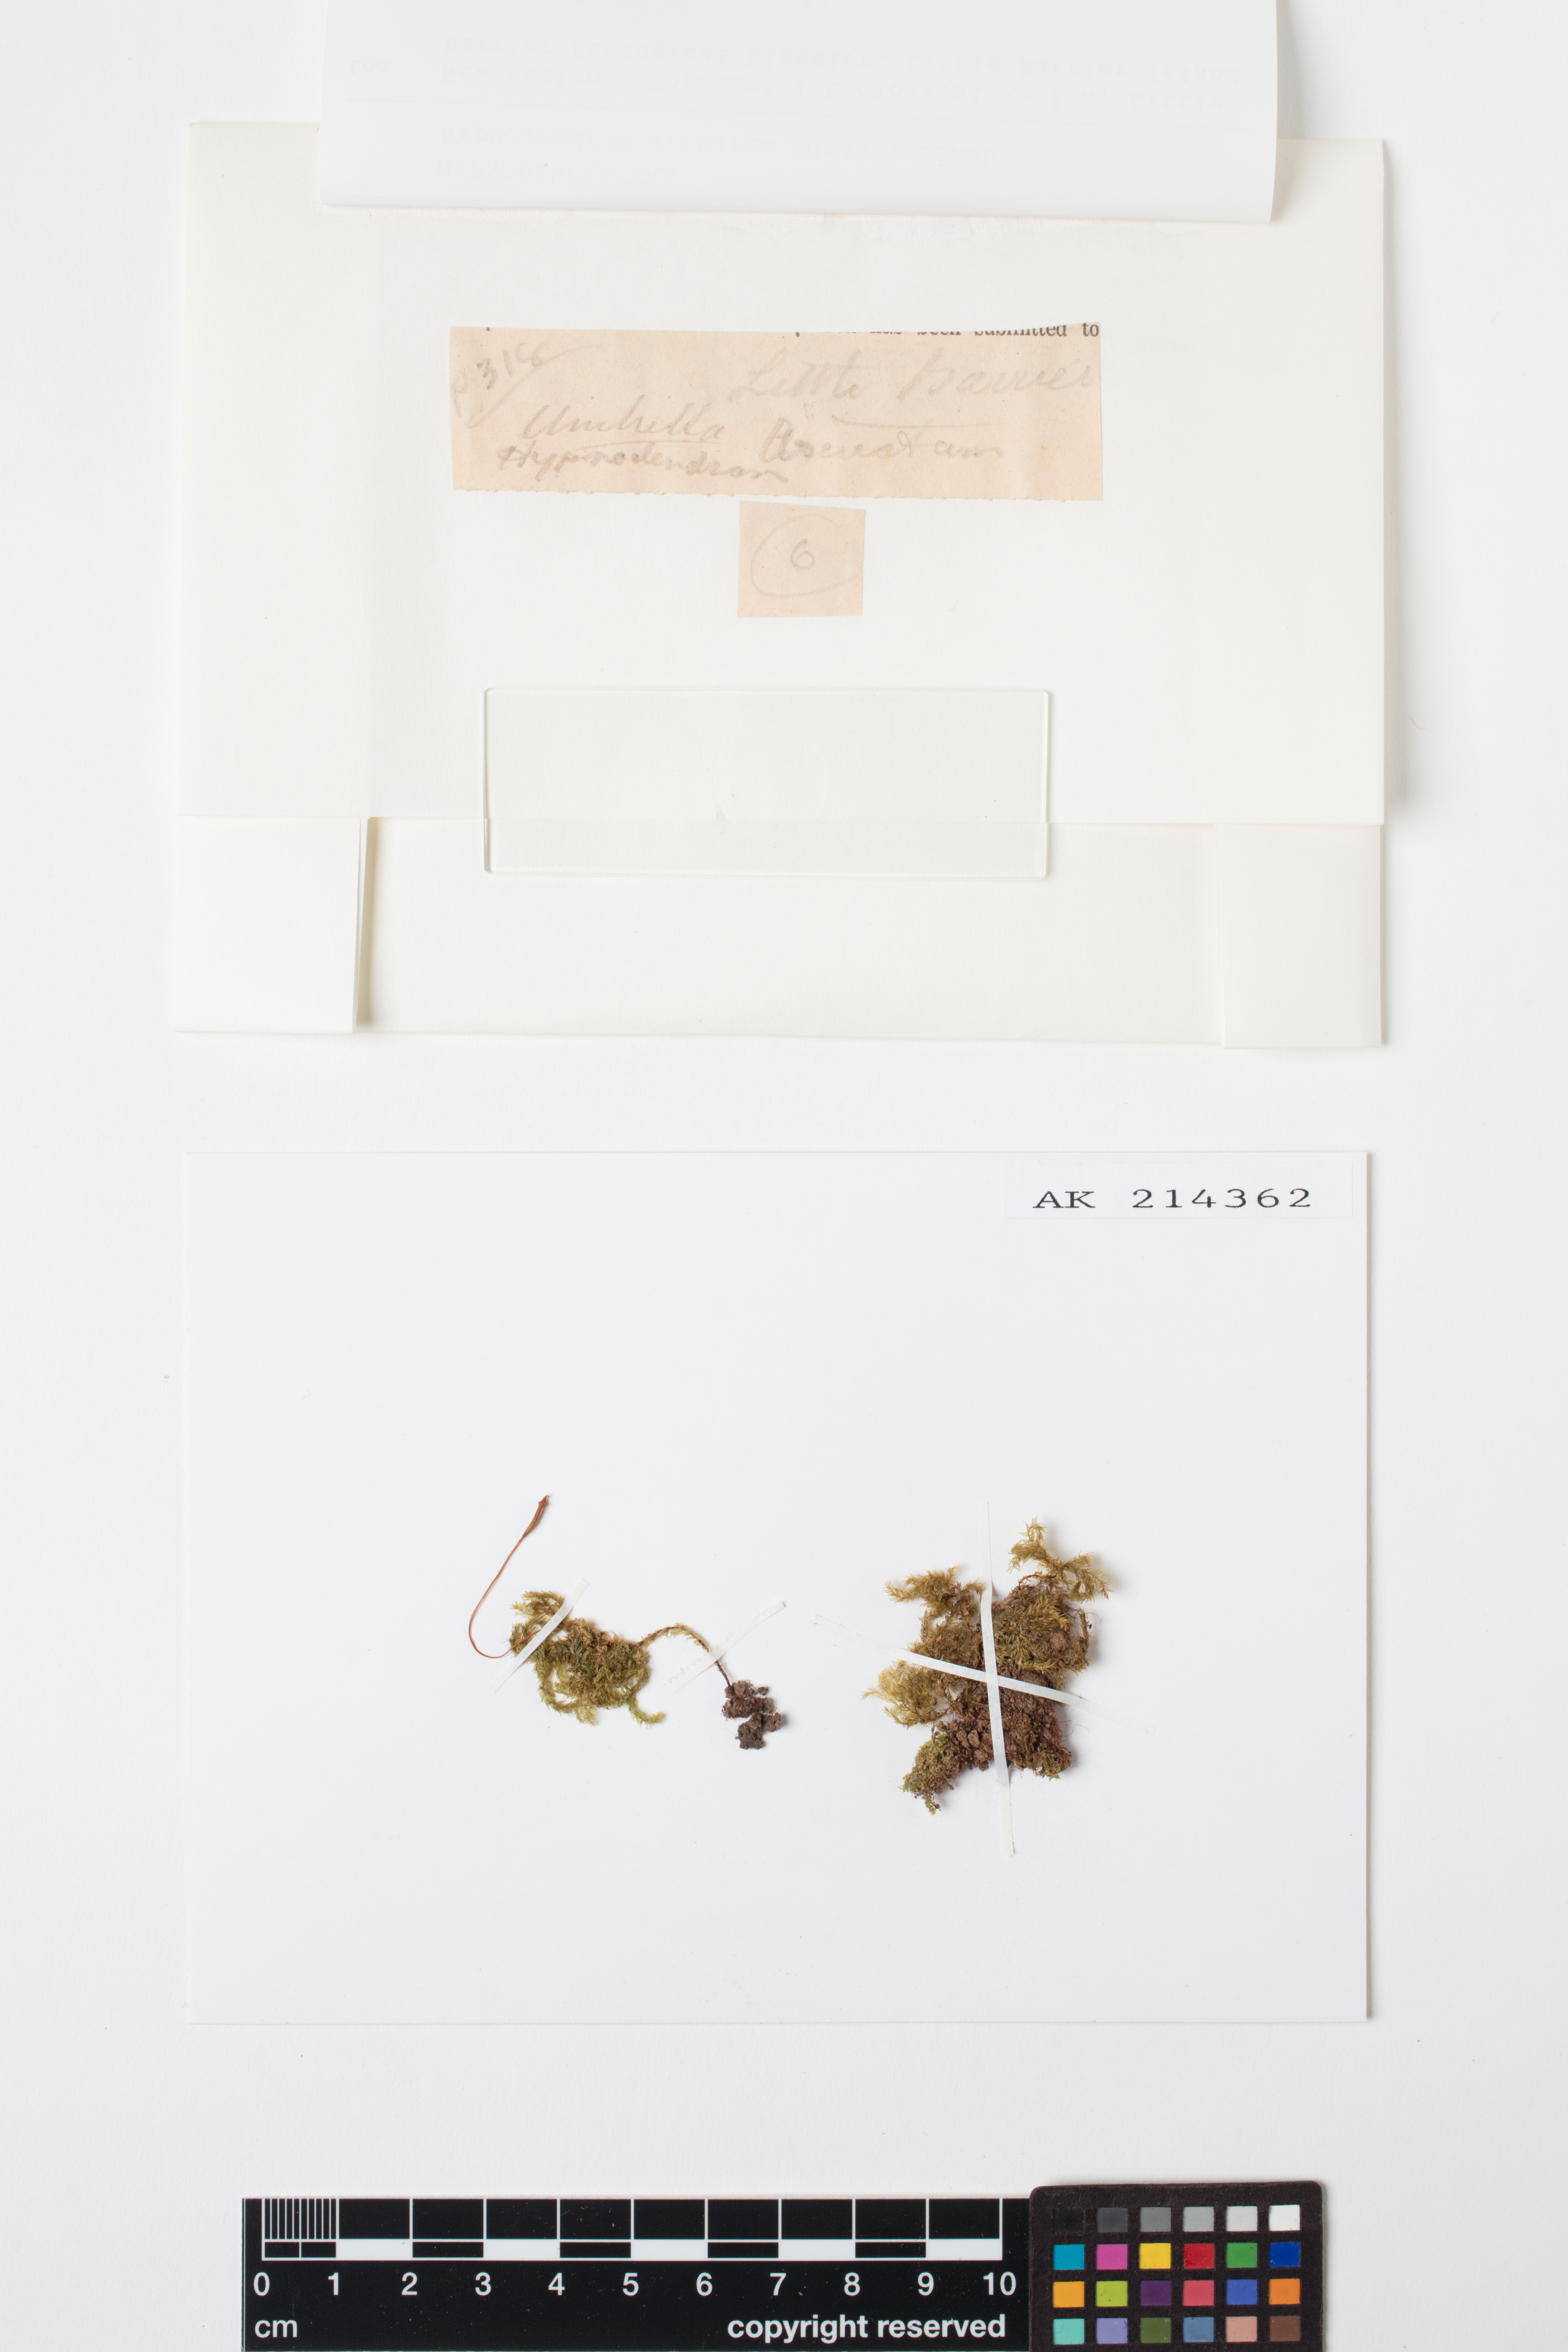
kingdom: Plantae
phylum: Bryophyta
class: Bryopsida
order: Hypnodendrales
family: Spiridentaceae
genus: Hypnodendron
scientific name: Hypnodendron arcuatum
